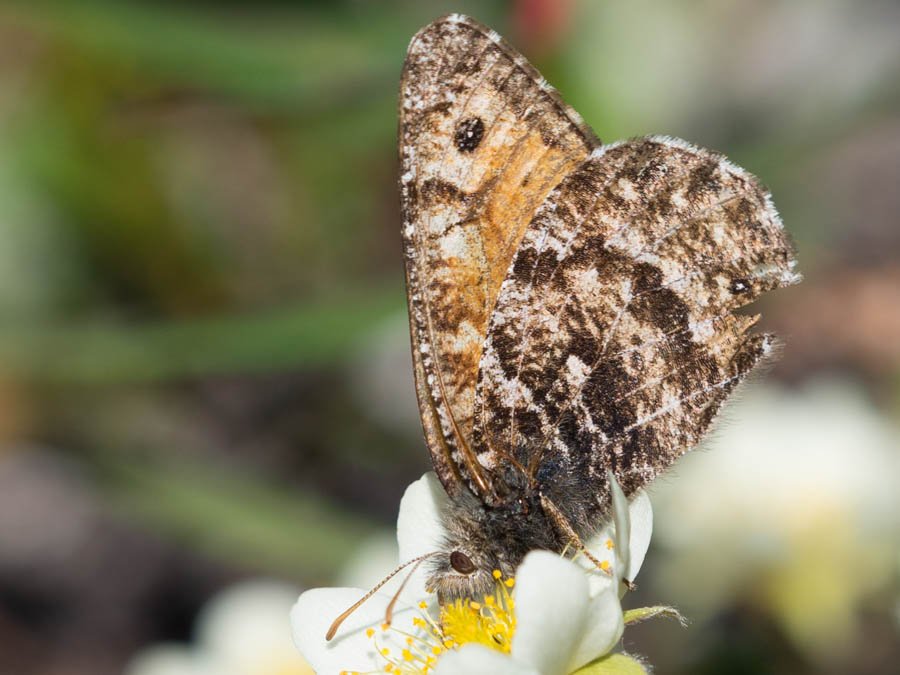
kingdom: Animalia
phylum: Arthropoda
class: Insecta
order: Lepidoptera
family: Nymphalidae
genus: Oeneis
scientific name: Oeneis chryxus
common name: Chryxus Arctic
